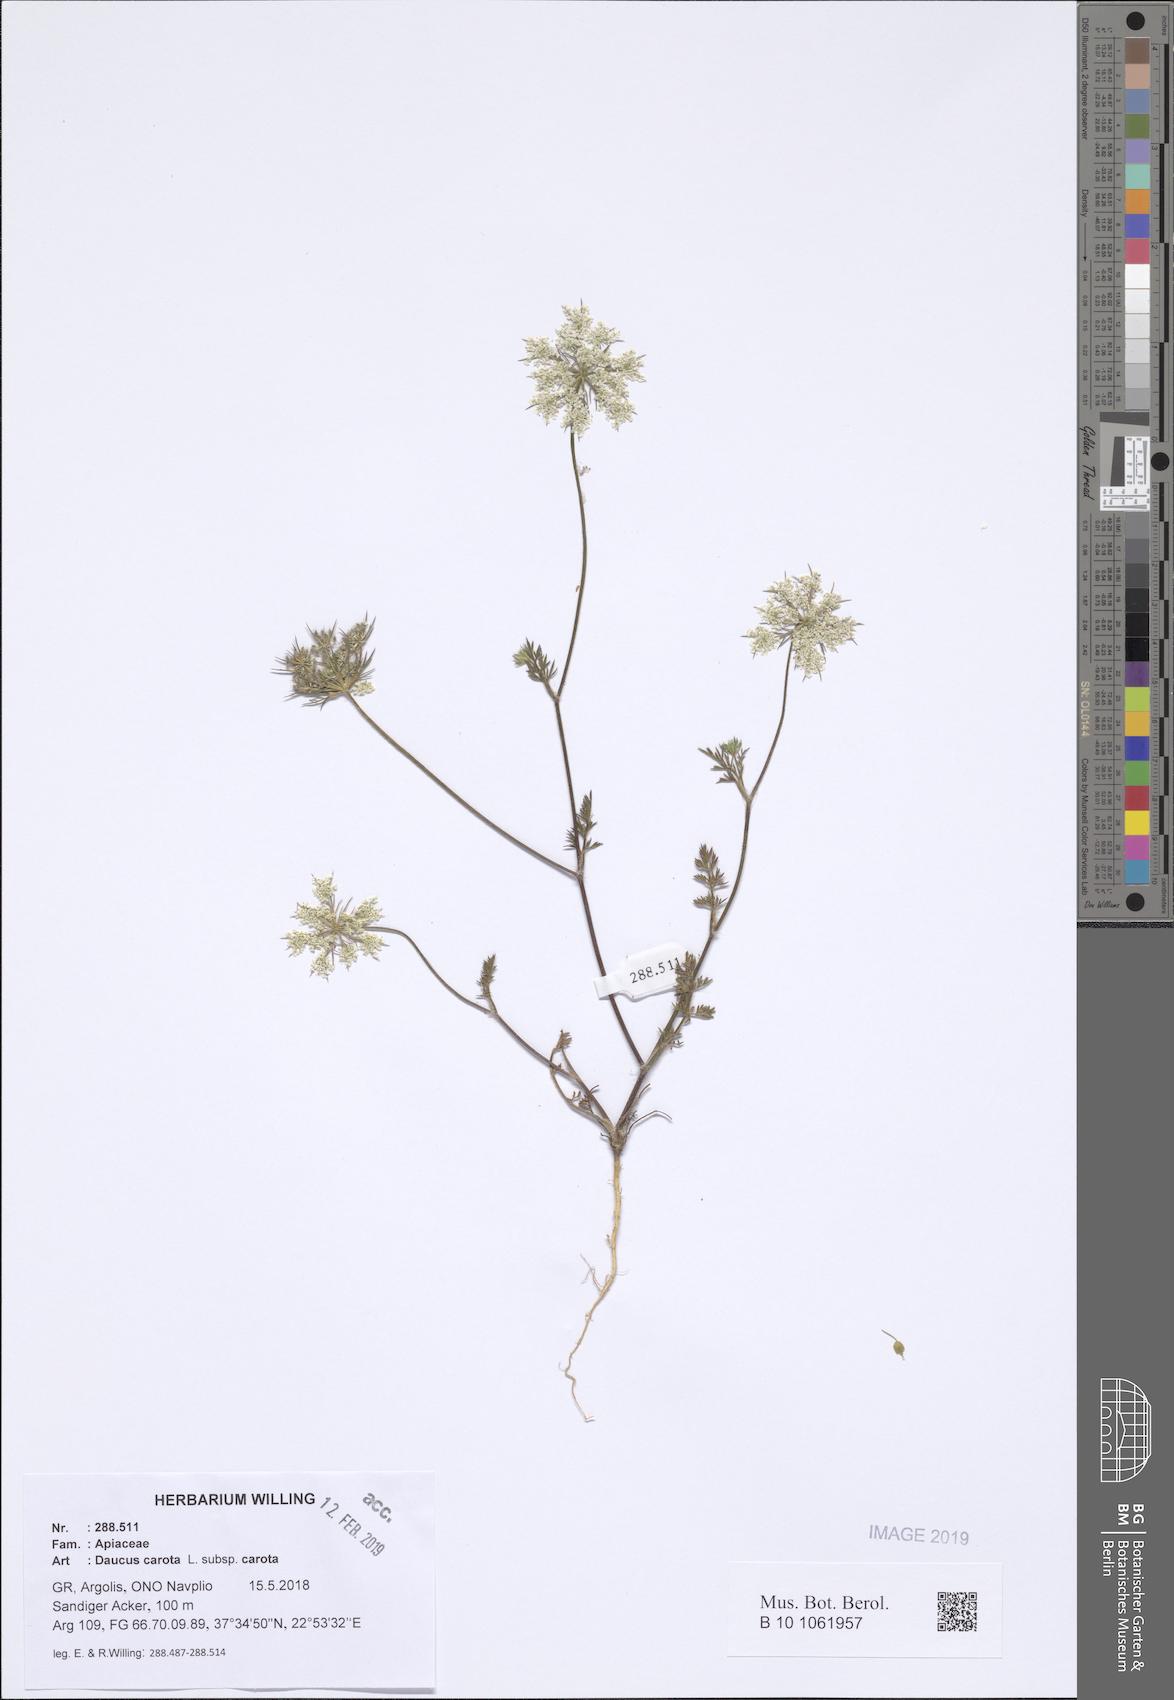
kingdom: Plantae
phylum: Tracheophyta
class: Magnoliopsida
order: Apiales
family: Apiaceae
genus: Daucus
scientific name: Daucus carota
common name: Wild carrot
